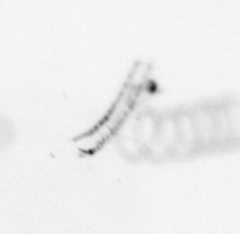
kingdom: Chromista
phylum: Ochrophyta
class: Bacillariophyceae
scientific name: Bacillariophyceae
